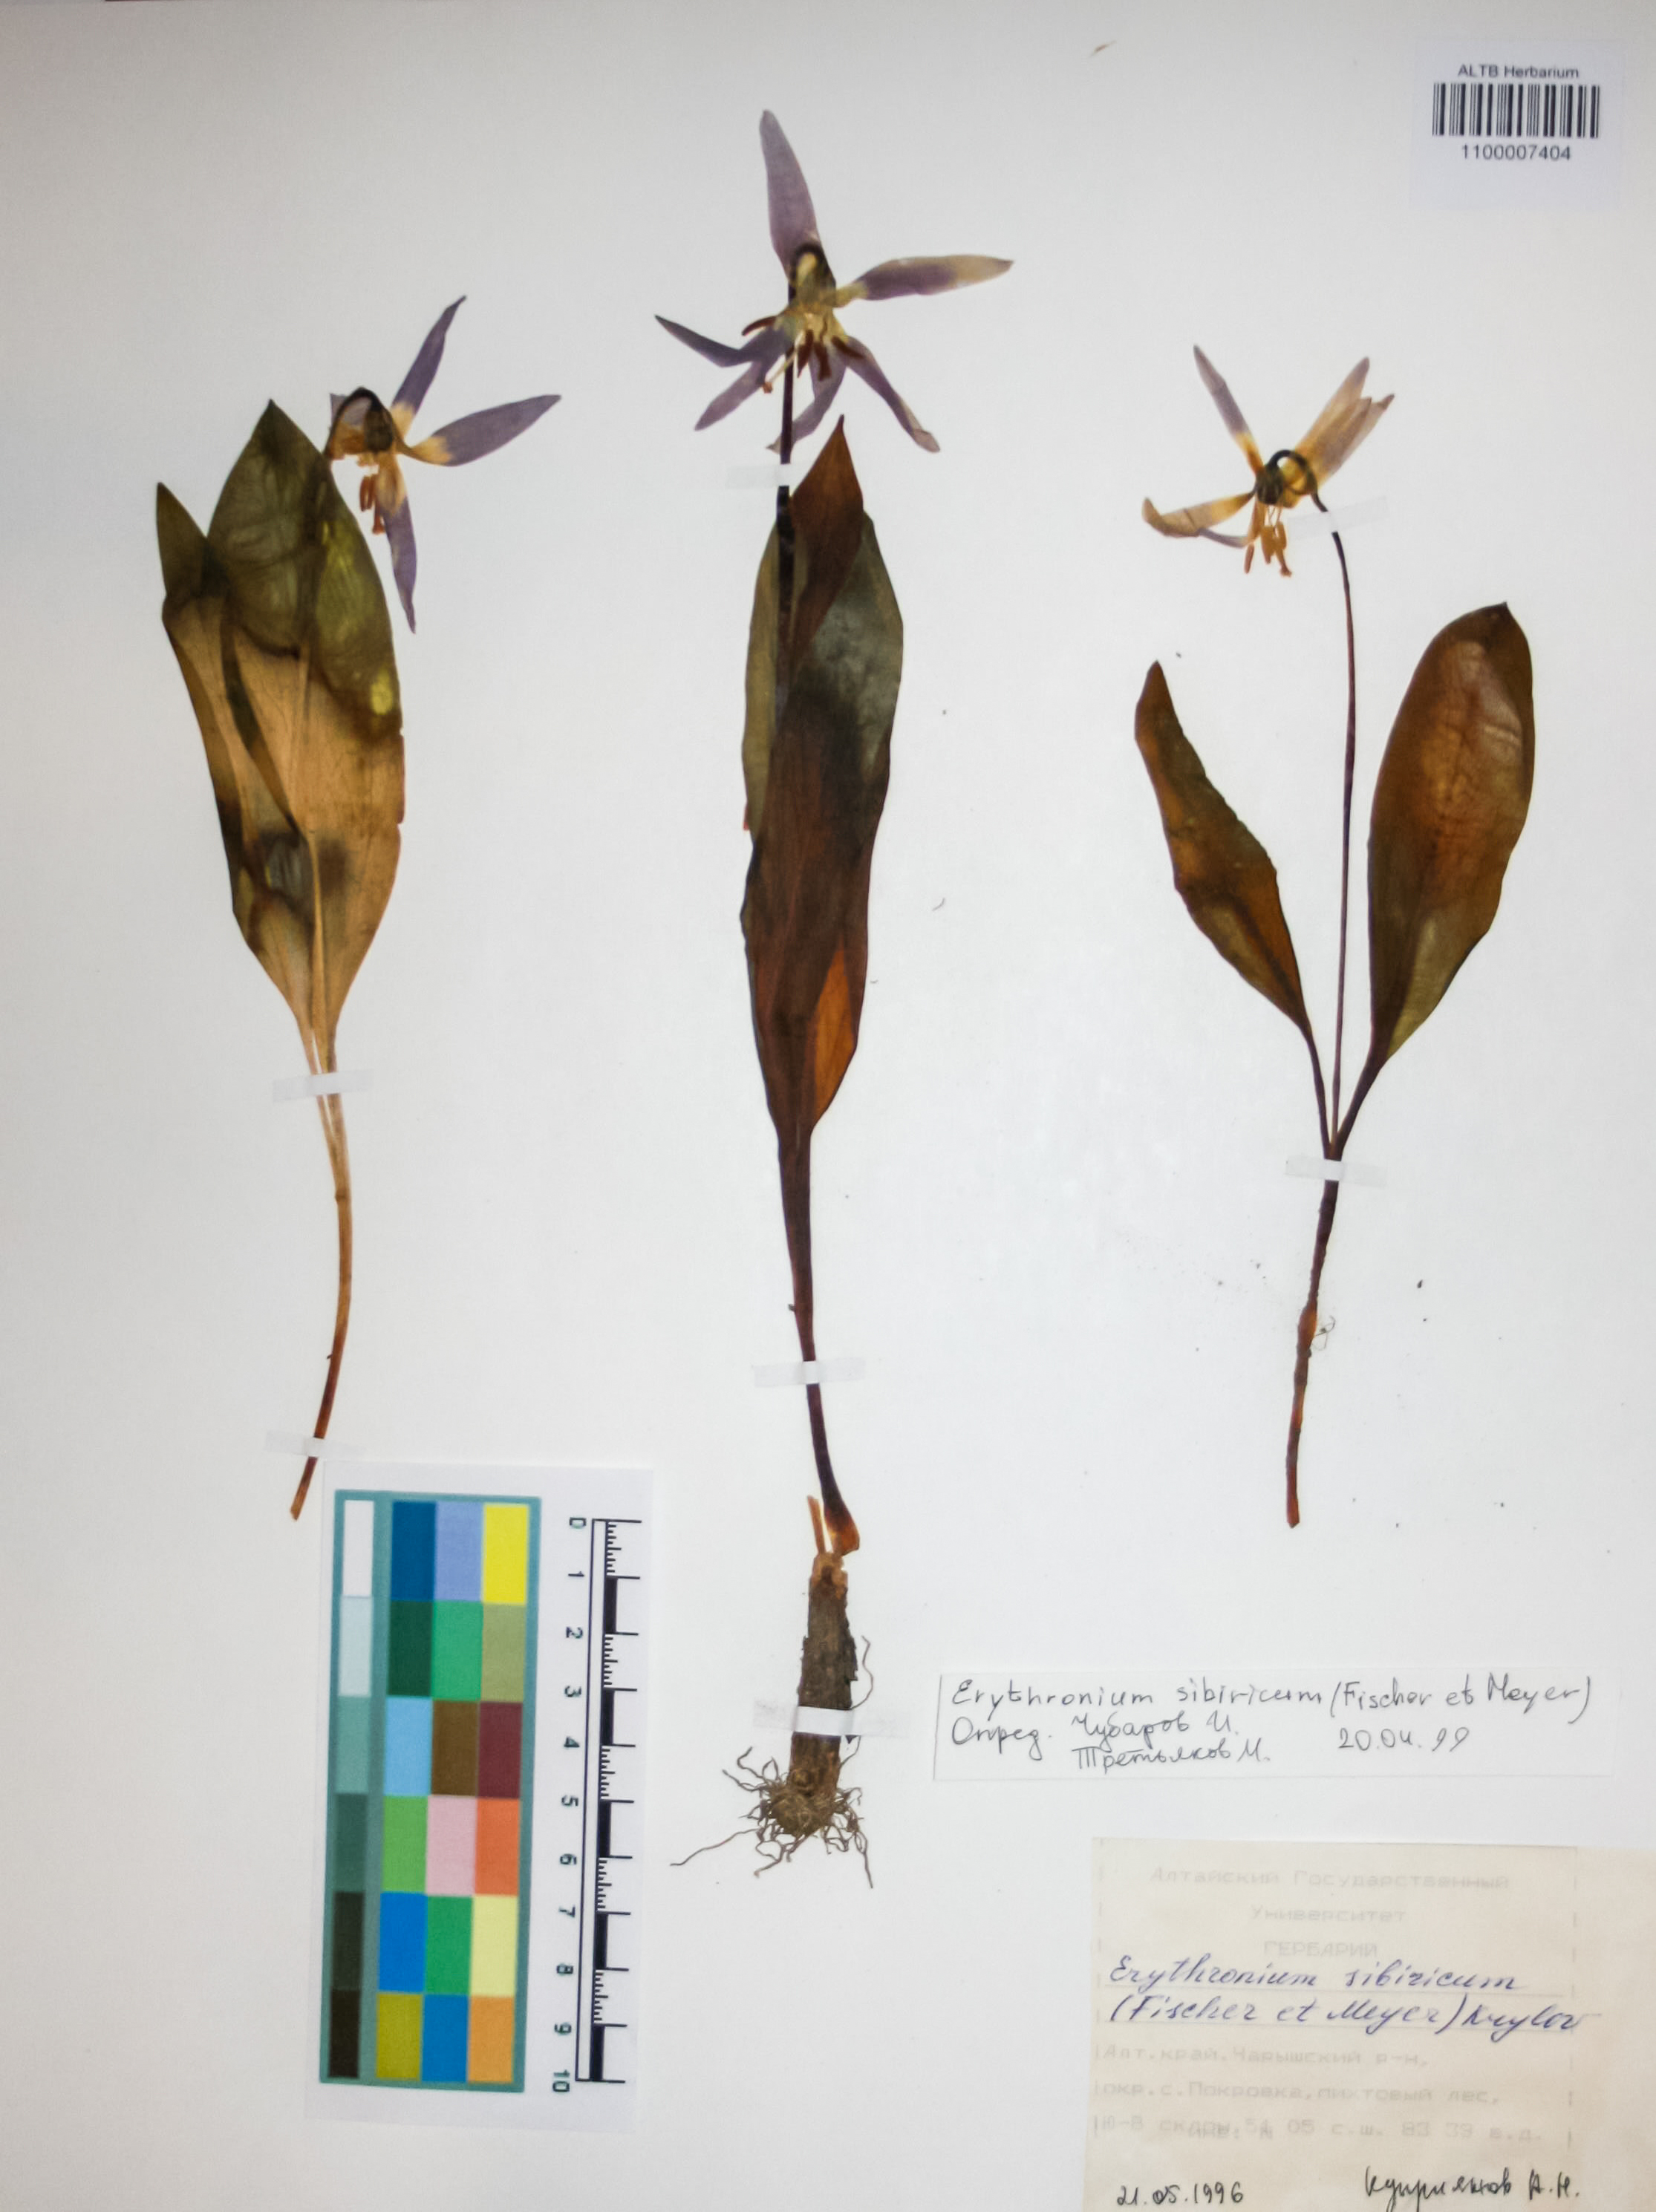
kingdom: Plantae
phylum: Tracheophyta
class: Liliopsida
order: Liliales
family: Liliaceae
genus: Erythronium
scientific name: Erythronium sibiricum
